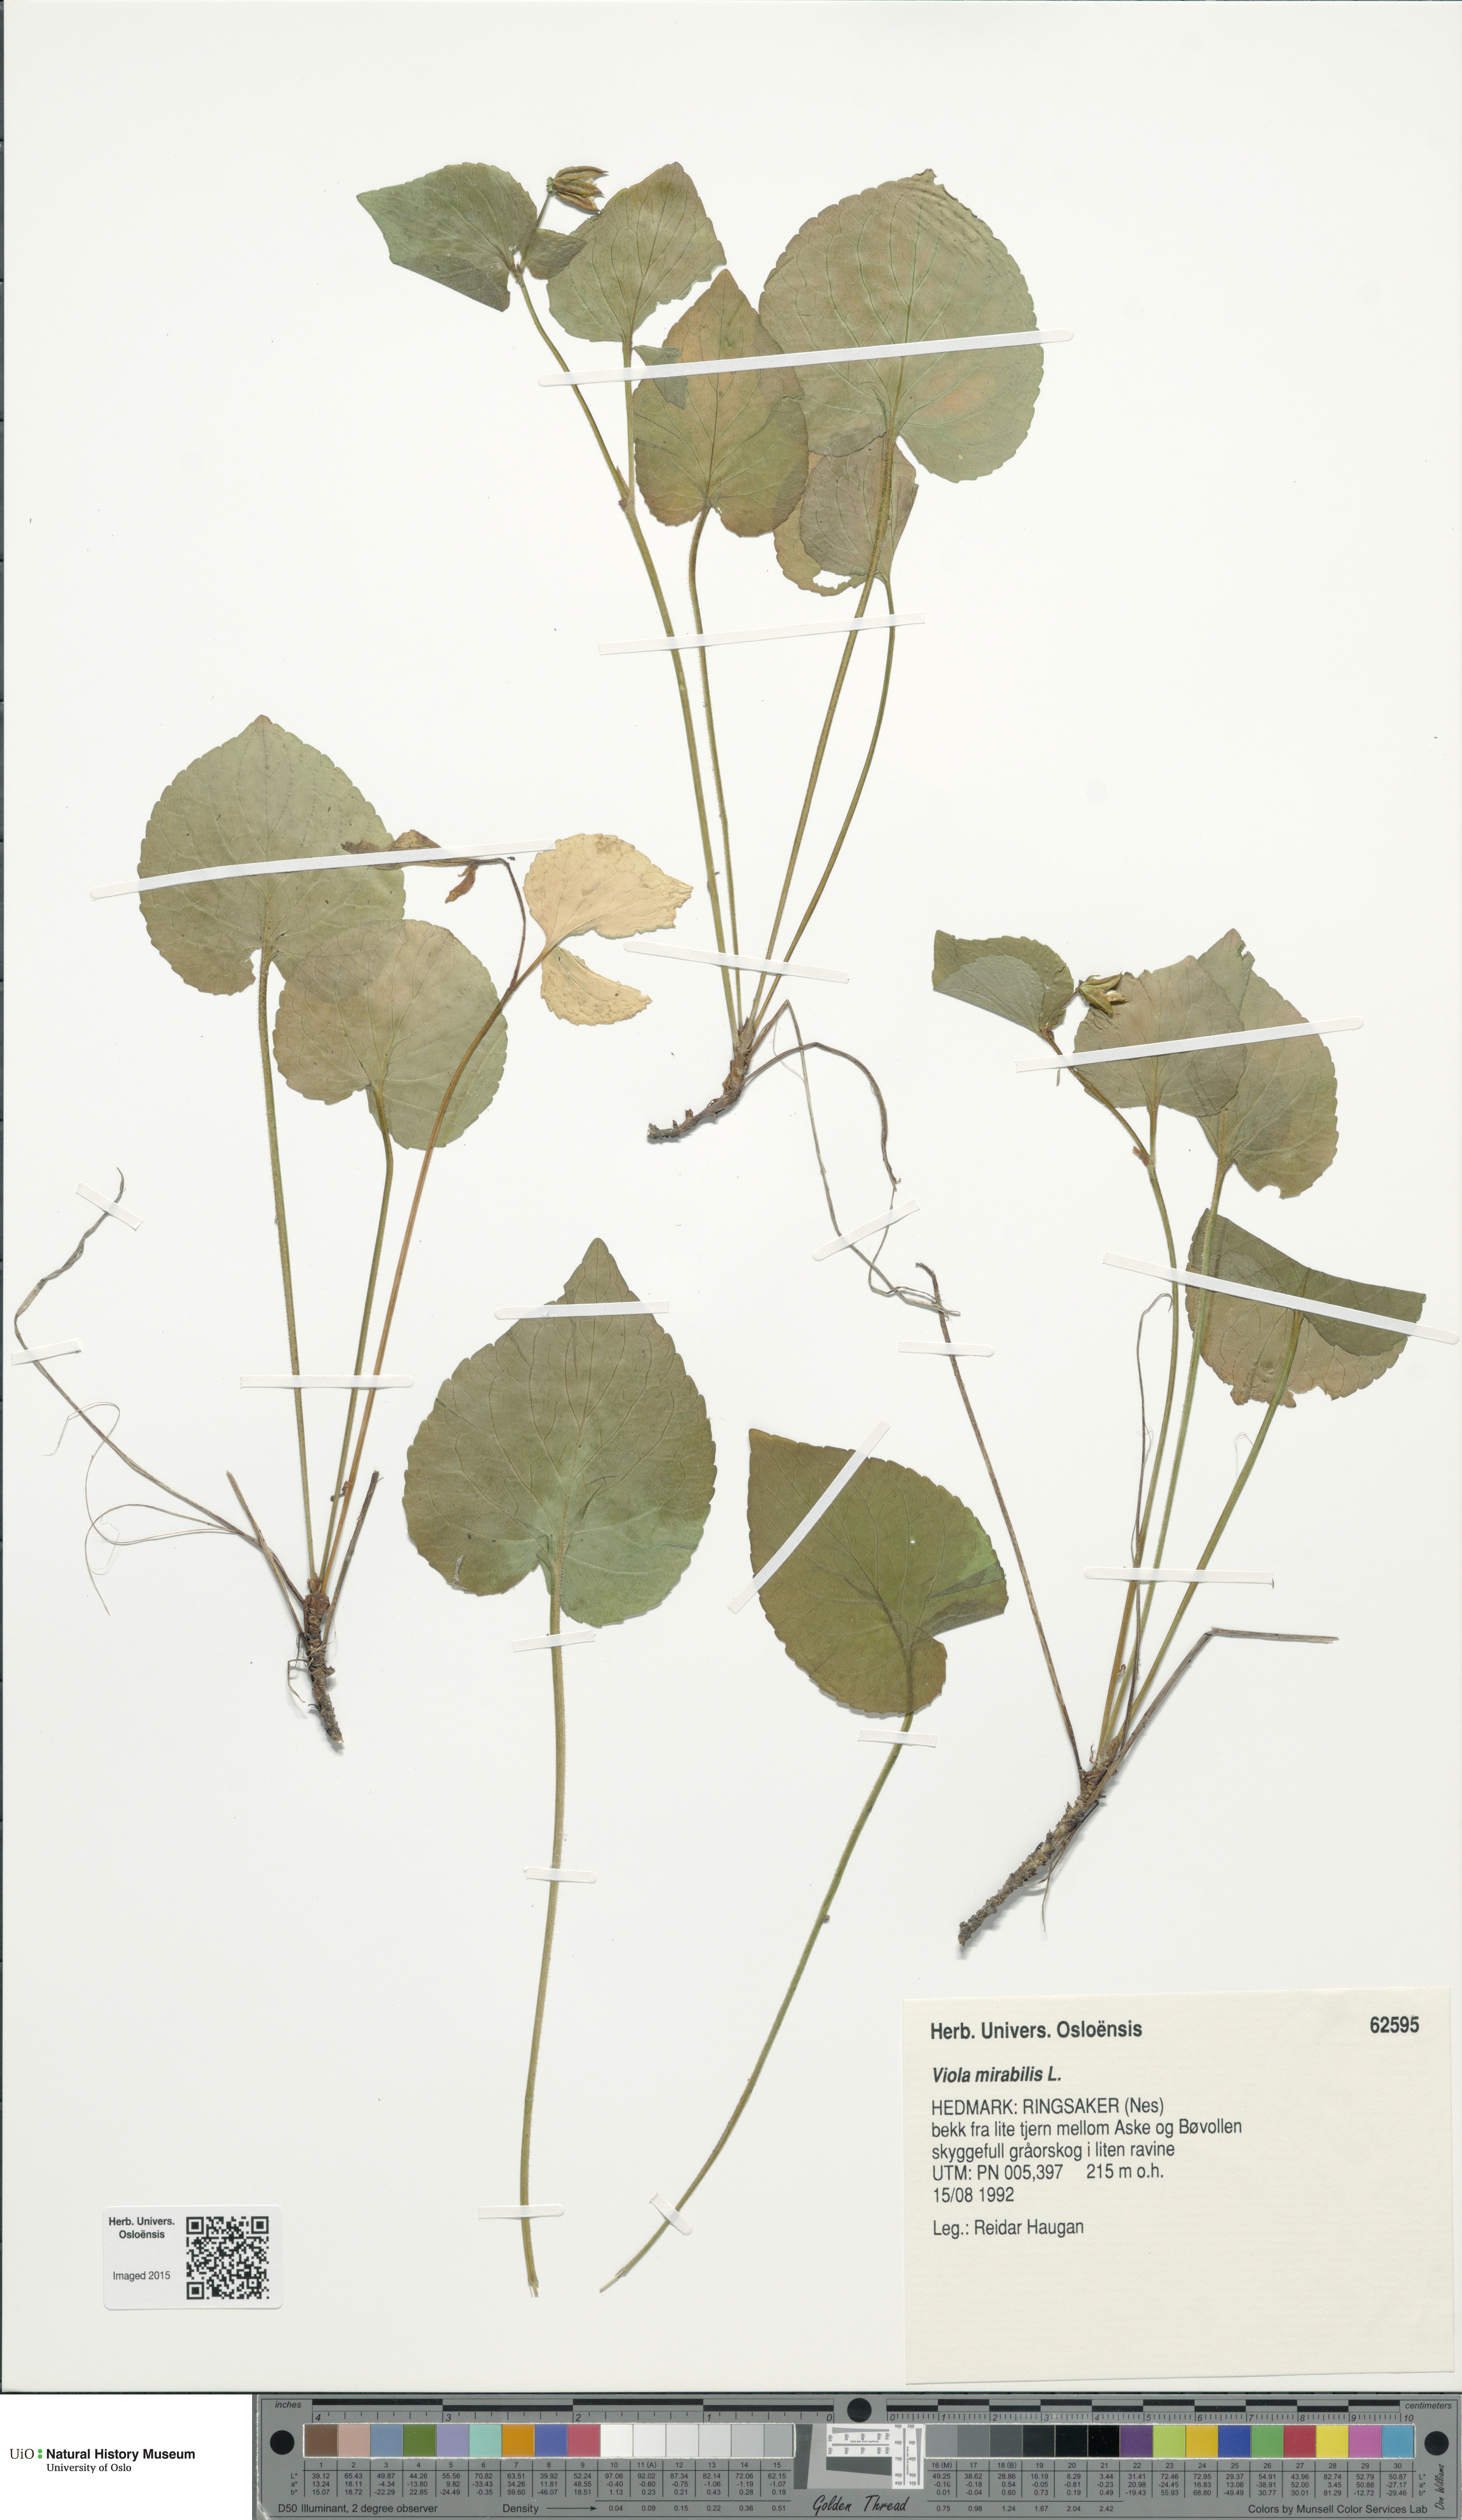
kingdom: Plantae
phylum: Tracheophyta
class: Magnoliopsida
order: Malpighiales
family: Violaceae
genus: Viola
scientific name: Viola mirabilis
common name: Wonder violet
